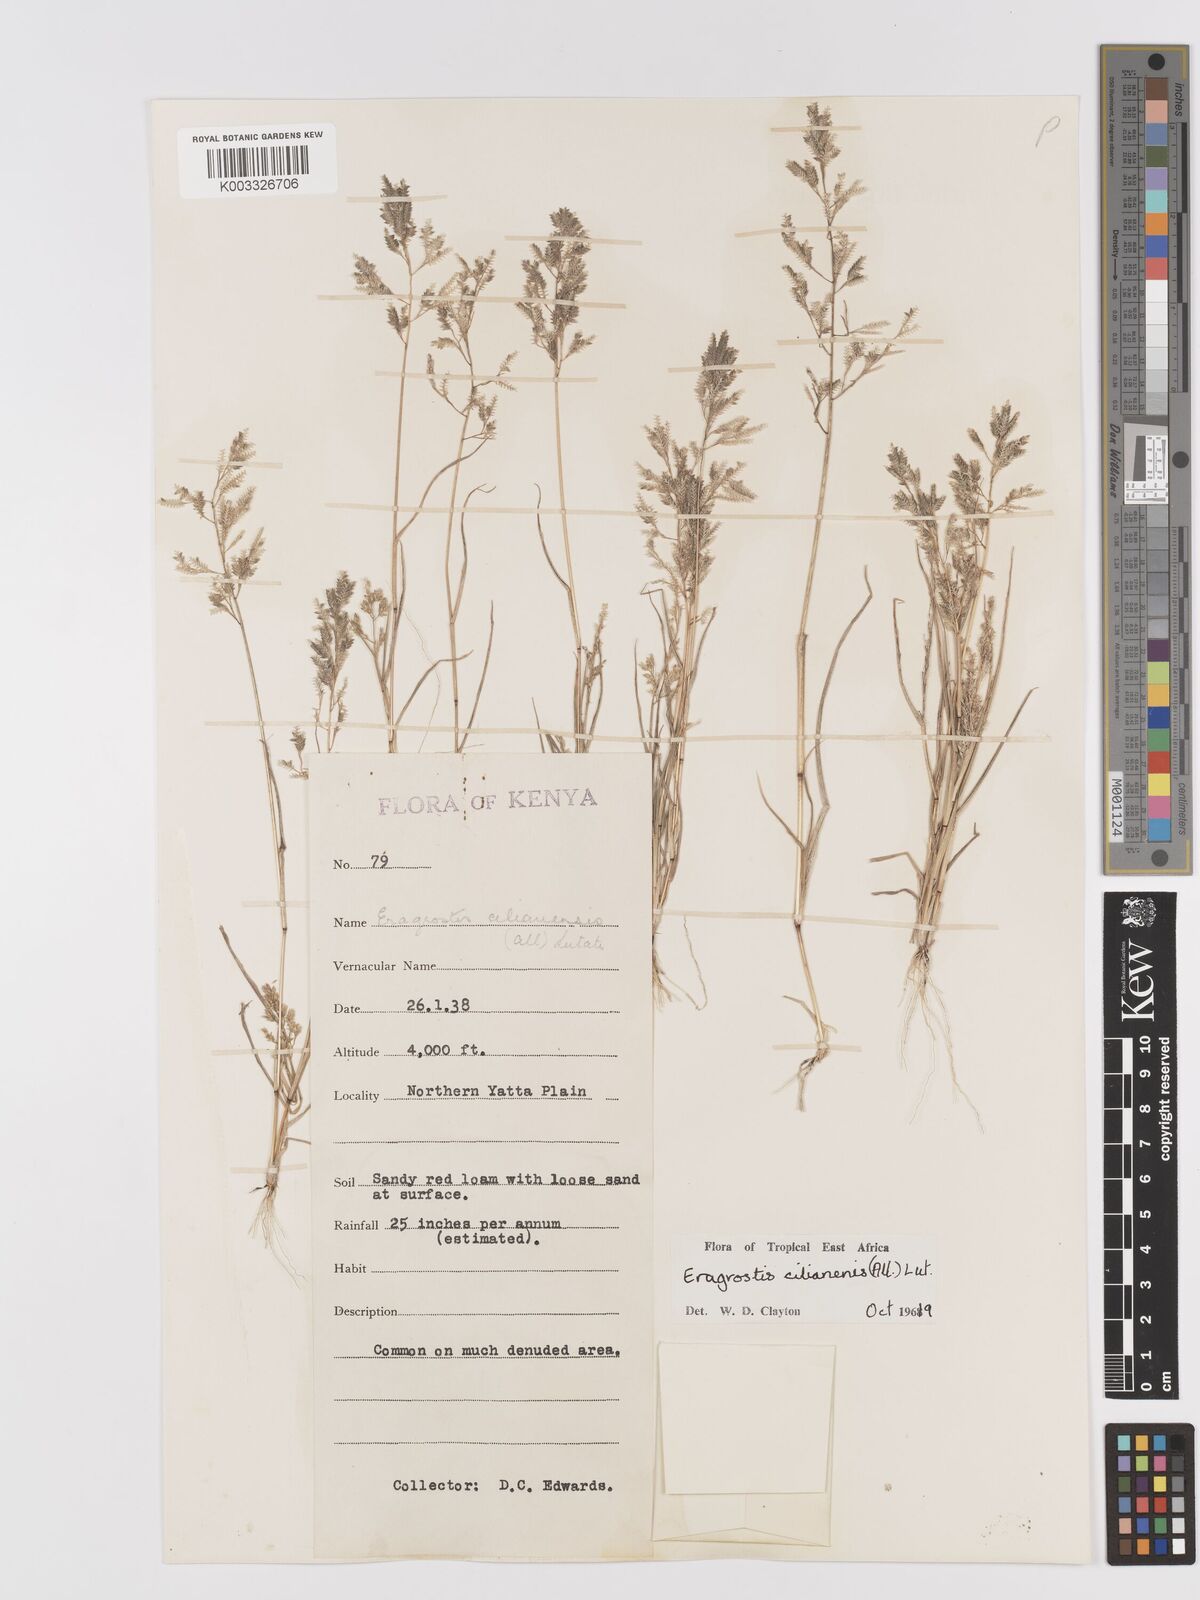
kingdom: Plantae
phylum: Tracheophyta
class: Liliopsida
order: Poales
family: Poaceae
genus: Eragrostis
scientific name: Eragrostis cilianensis
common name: Stinkgrass
